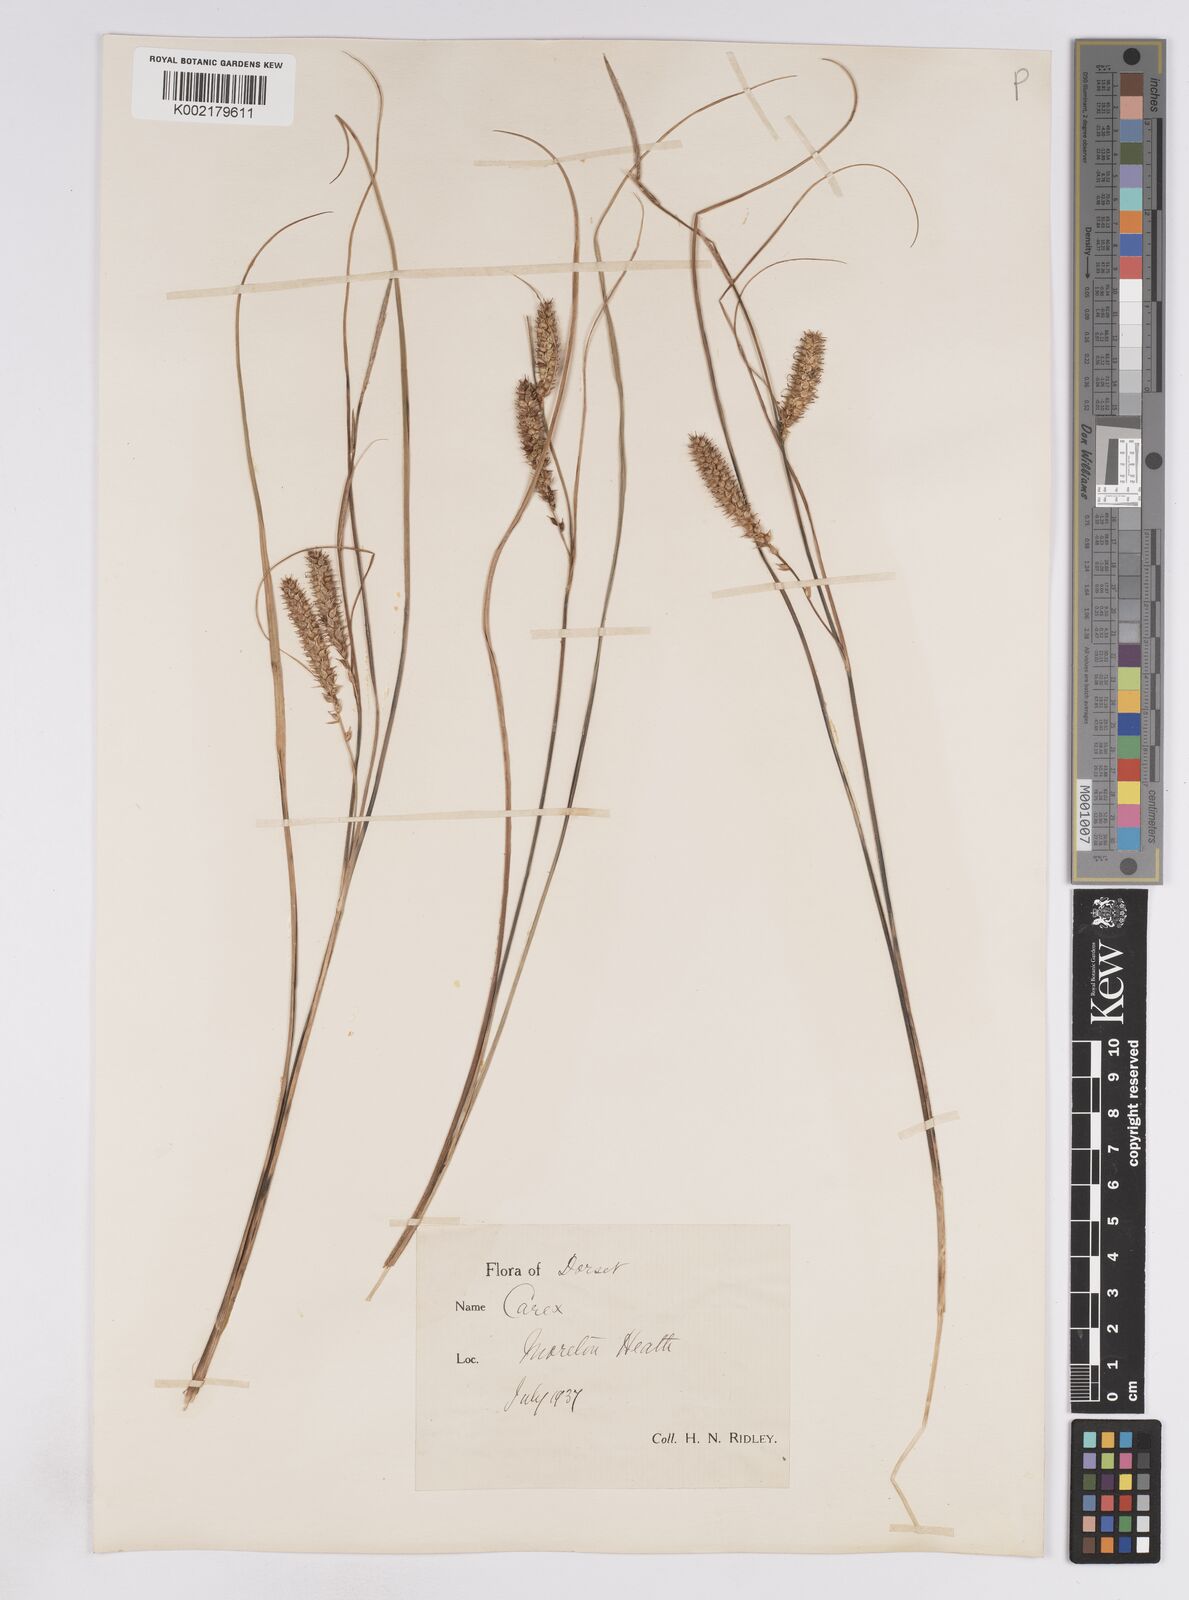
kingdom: Plantae
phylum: Tracheophyta
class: Liliopsida
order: Poales
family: Cyperaceae
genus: Carex
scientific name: Carex rostrata
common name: Bottle sedge
